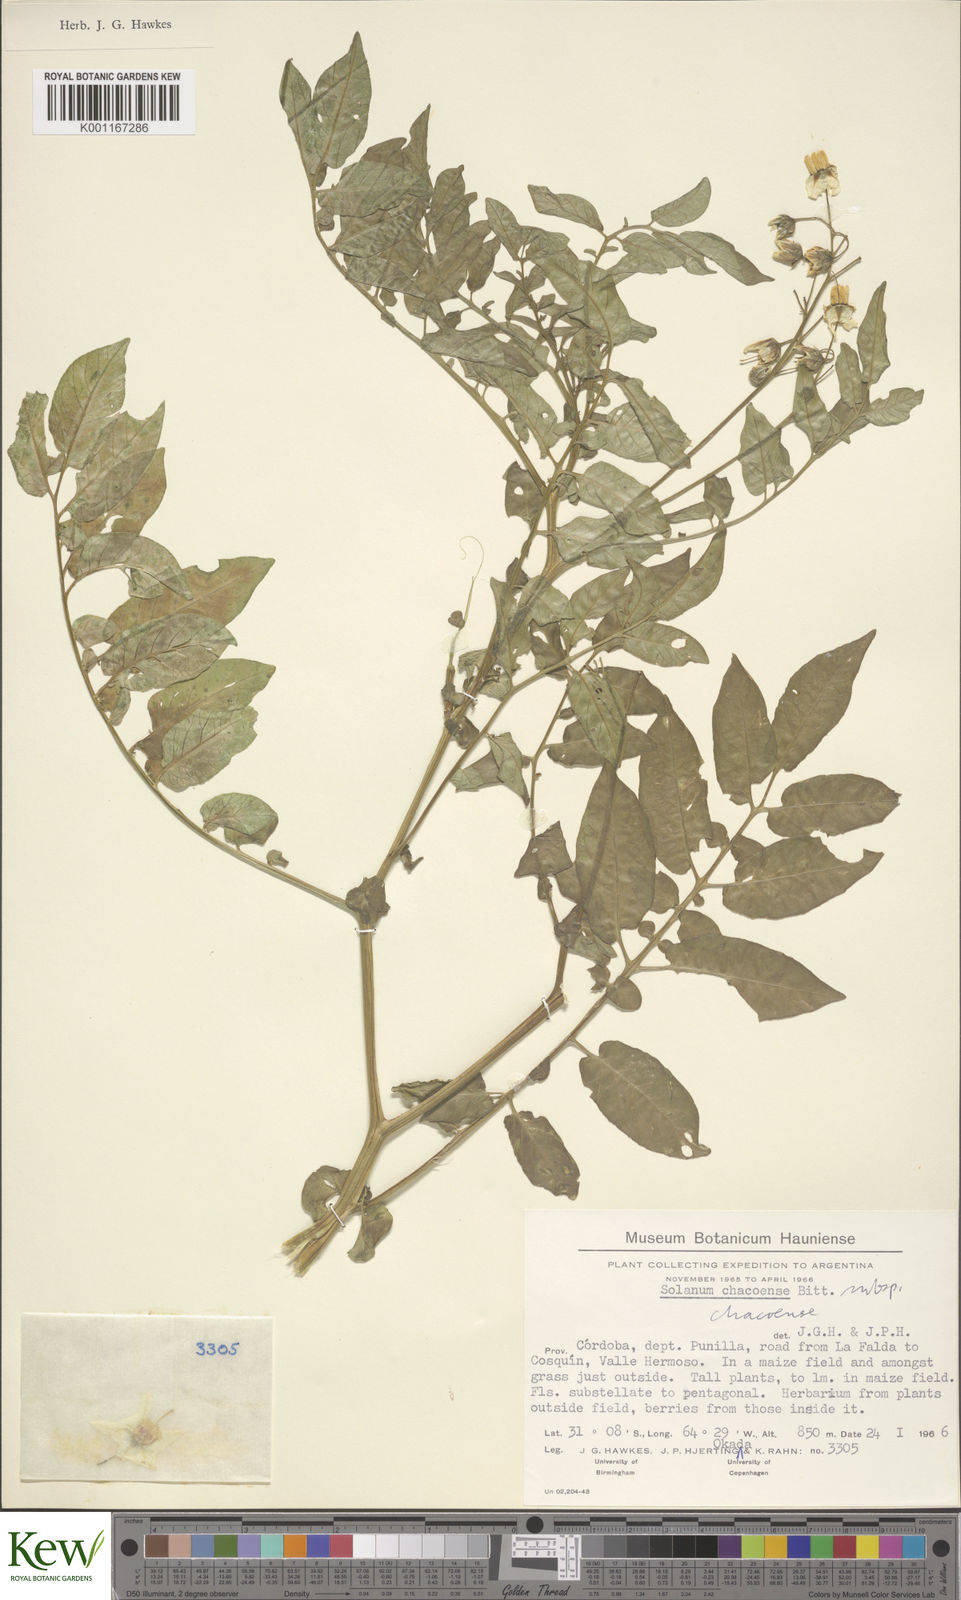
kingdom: Plantae
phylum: Tracheophyta
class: Magnoliopsida
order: Solanales
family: Solanaceae
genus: Solanum
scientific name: Solanum chacoense
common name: Chaco potato
